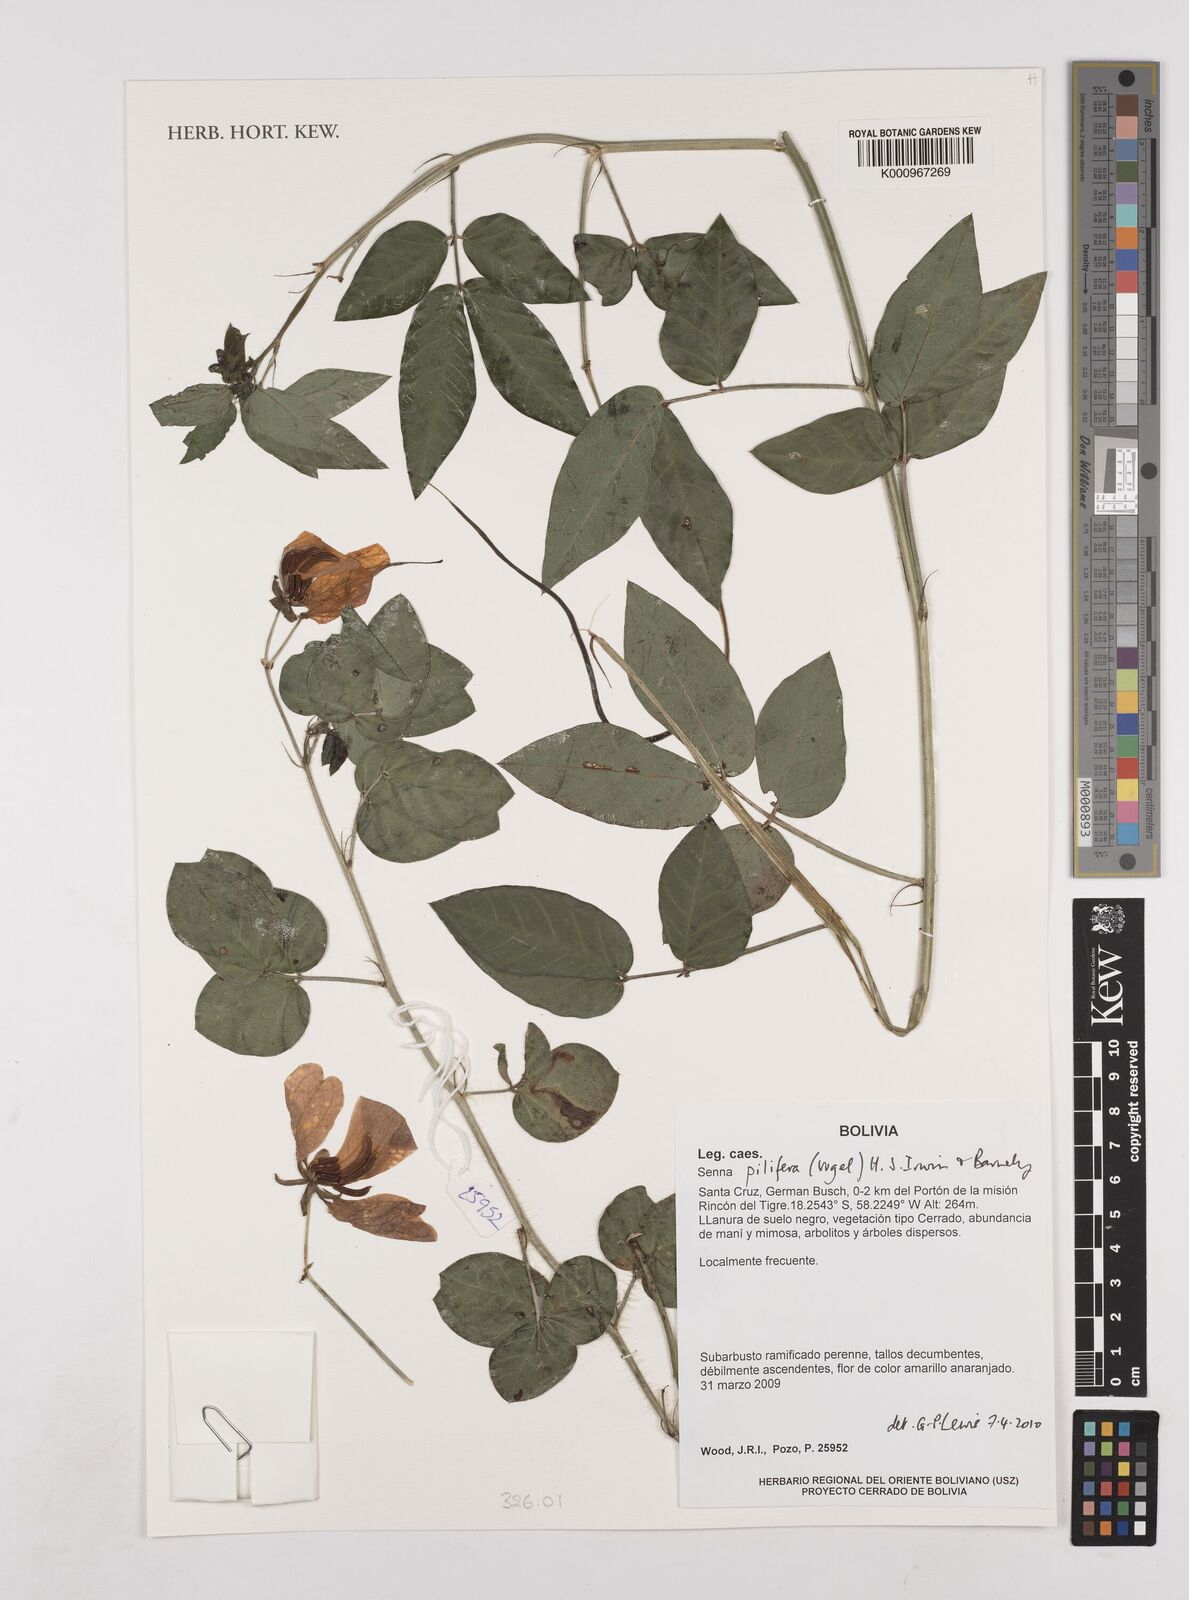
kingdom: Plantae
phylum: Tracheophyta
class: Magnoliopsida
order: Fabales
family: Fabaceae
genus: Senna
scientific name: Senna pilifera
